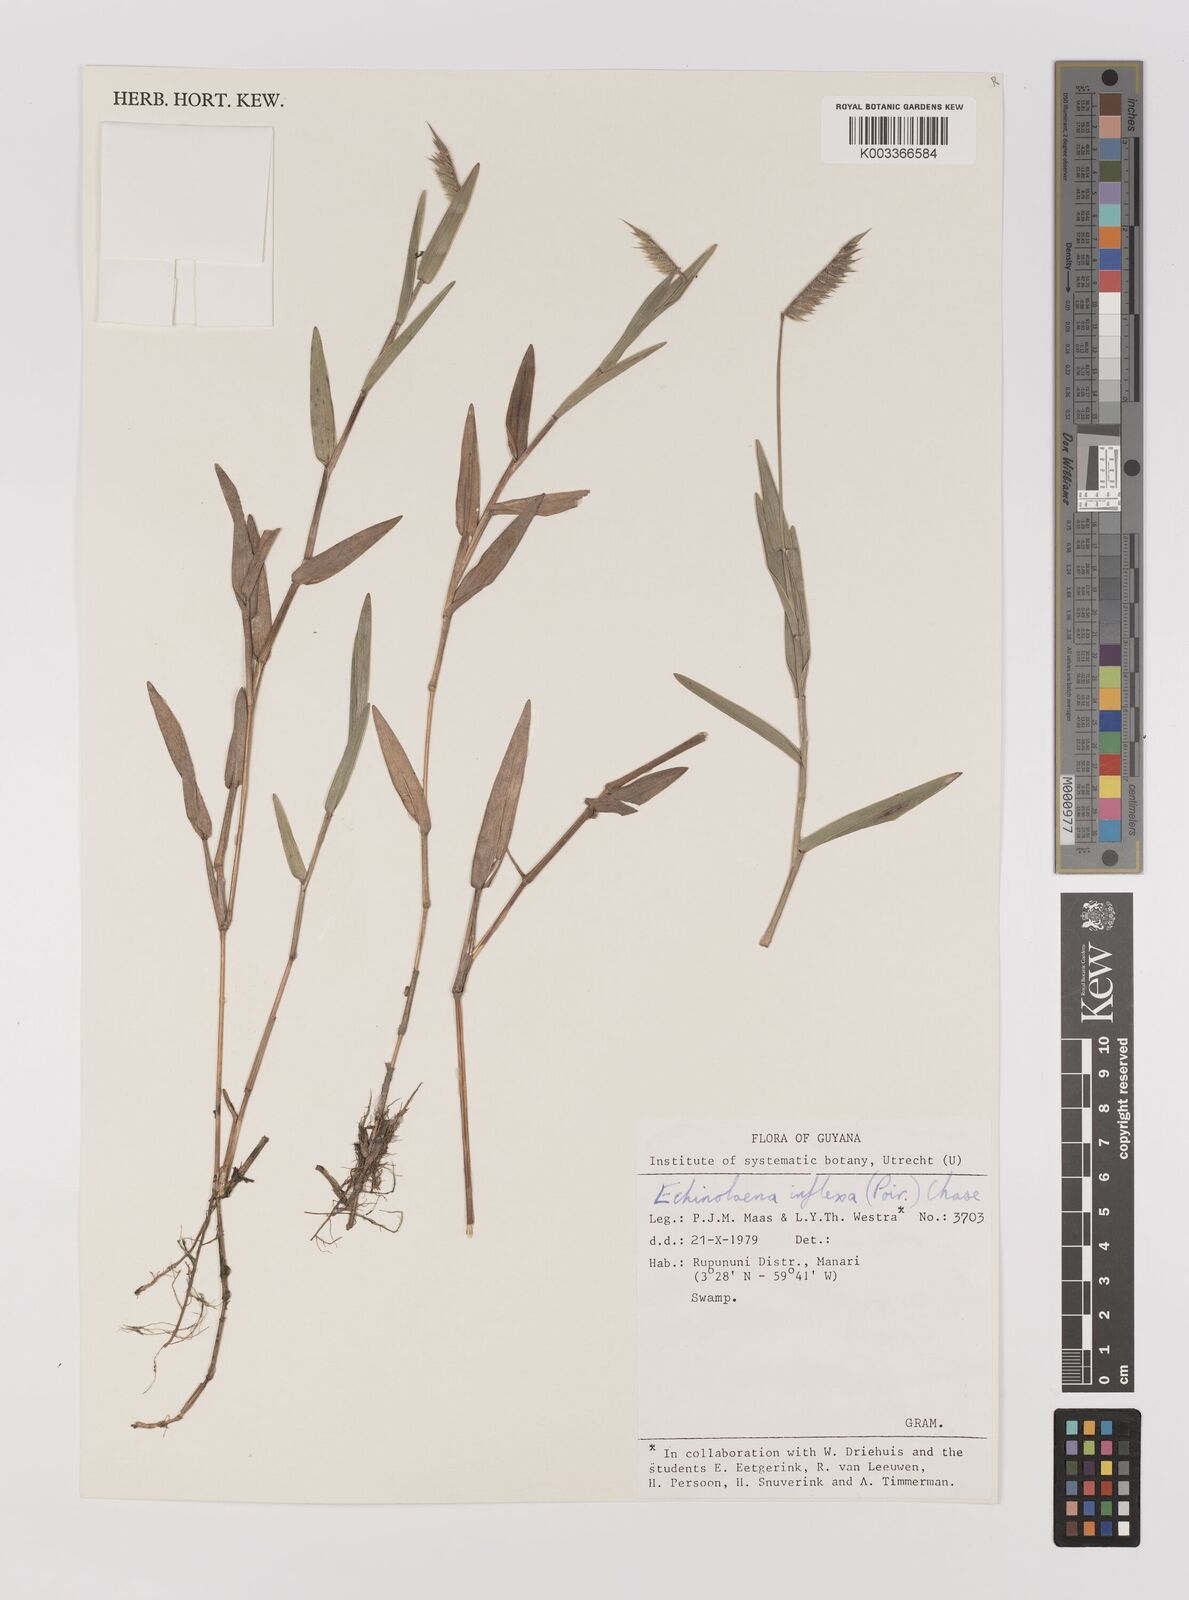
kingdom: Plantae
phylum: Tracheophyta
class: Liliopsida
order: Poales
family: Poaceae
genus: Echinolaena
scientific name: Echinolaena inflexa
